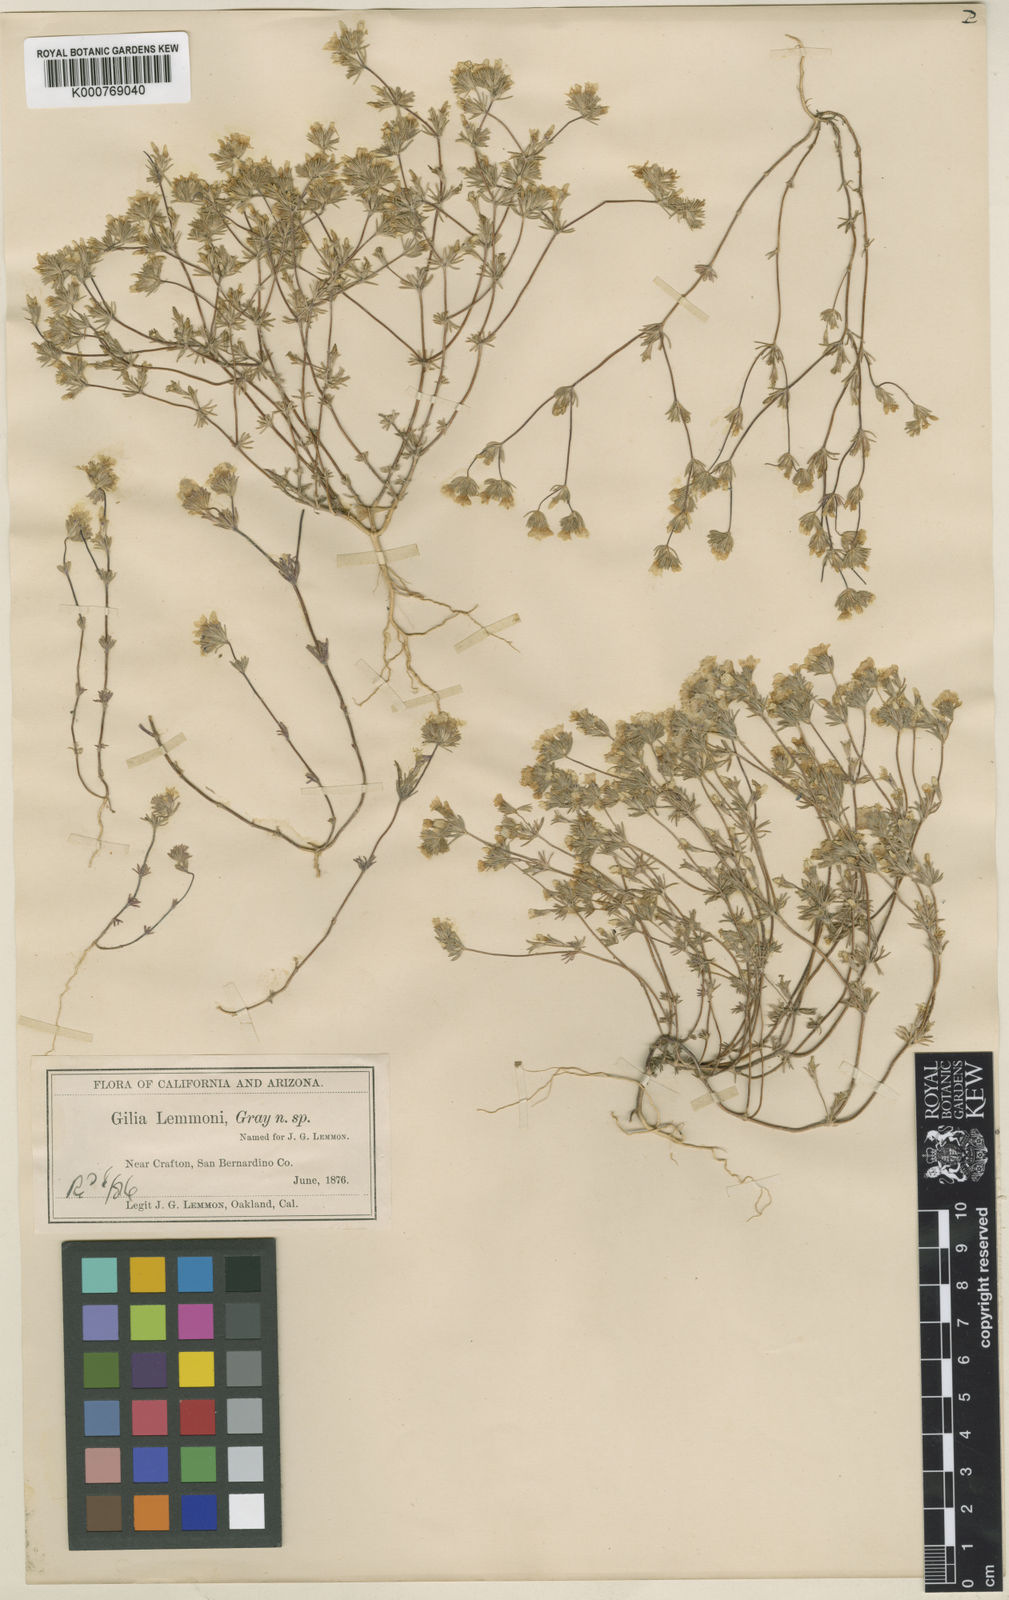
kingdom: Plantae
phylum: Tracheophyta
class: Magnoliopsida
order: Ericales
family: Polemoniaceae
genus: Leptosiphon
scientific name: Leptosiphon lemmonii
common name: Lemmon's linanthus
